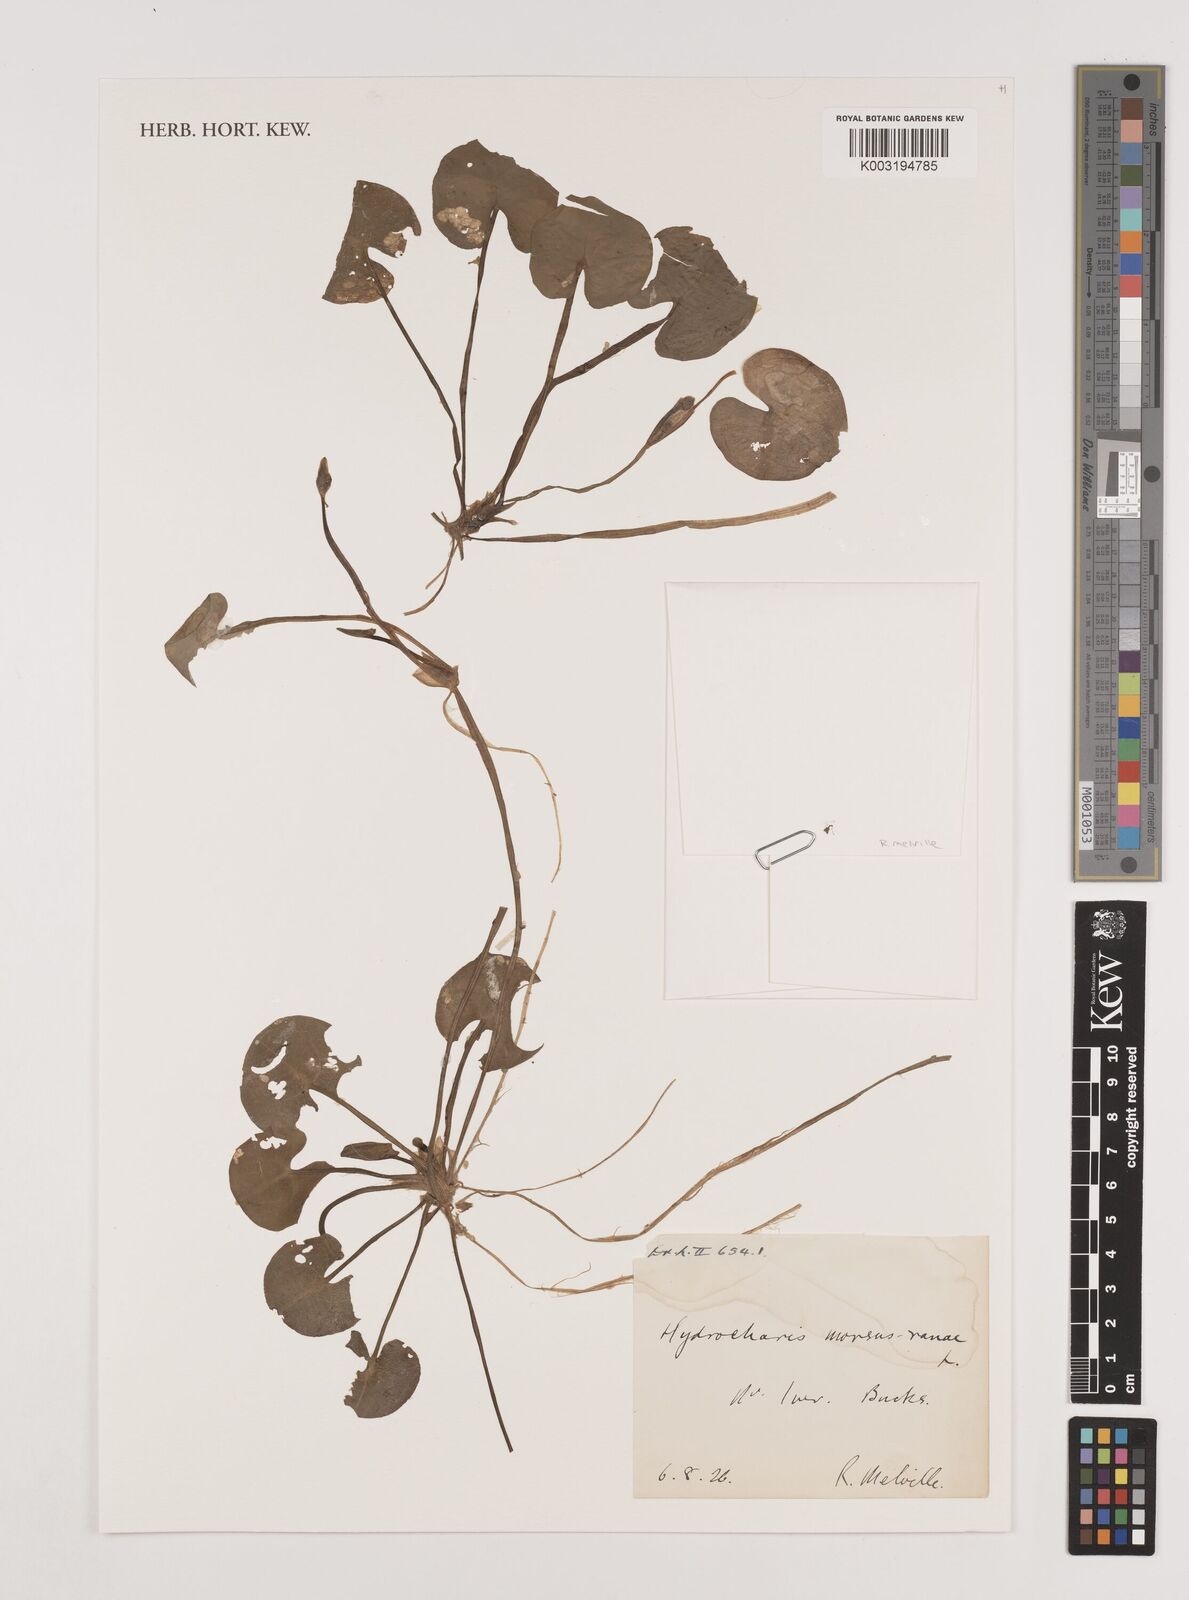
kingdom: Plantae
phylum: Tracheophyta
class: Liliopsida
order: Alismatales
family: Hydrocharitaceae
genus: Hydrocharis
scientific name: Hydrocharis morsus-ranae
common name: Frogbit
